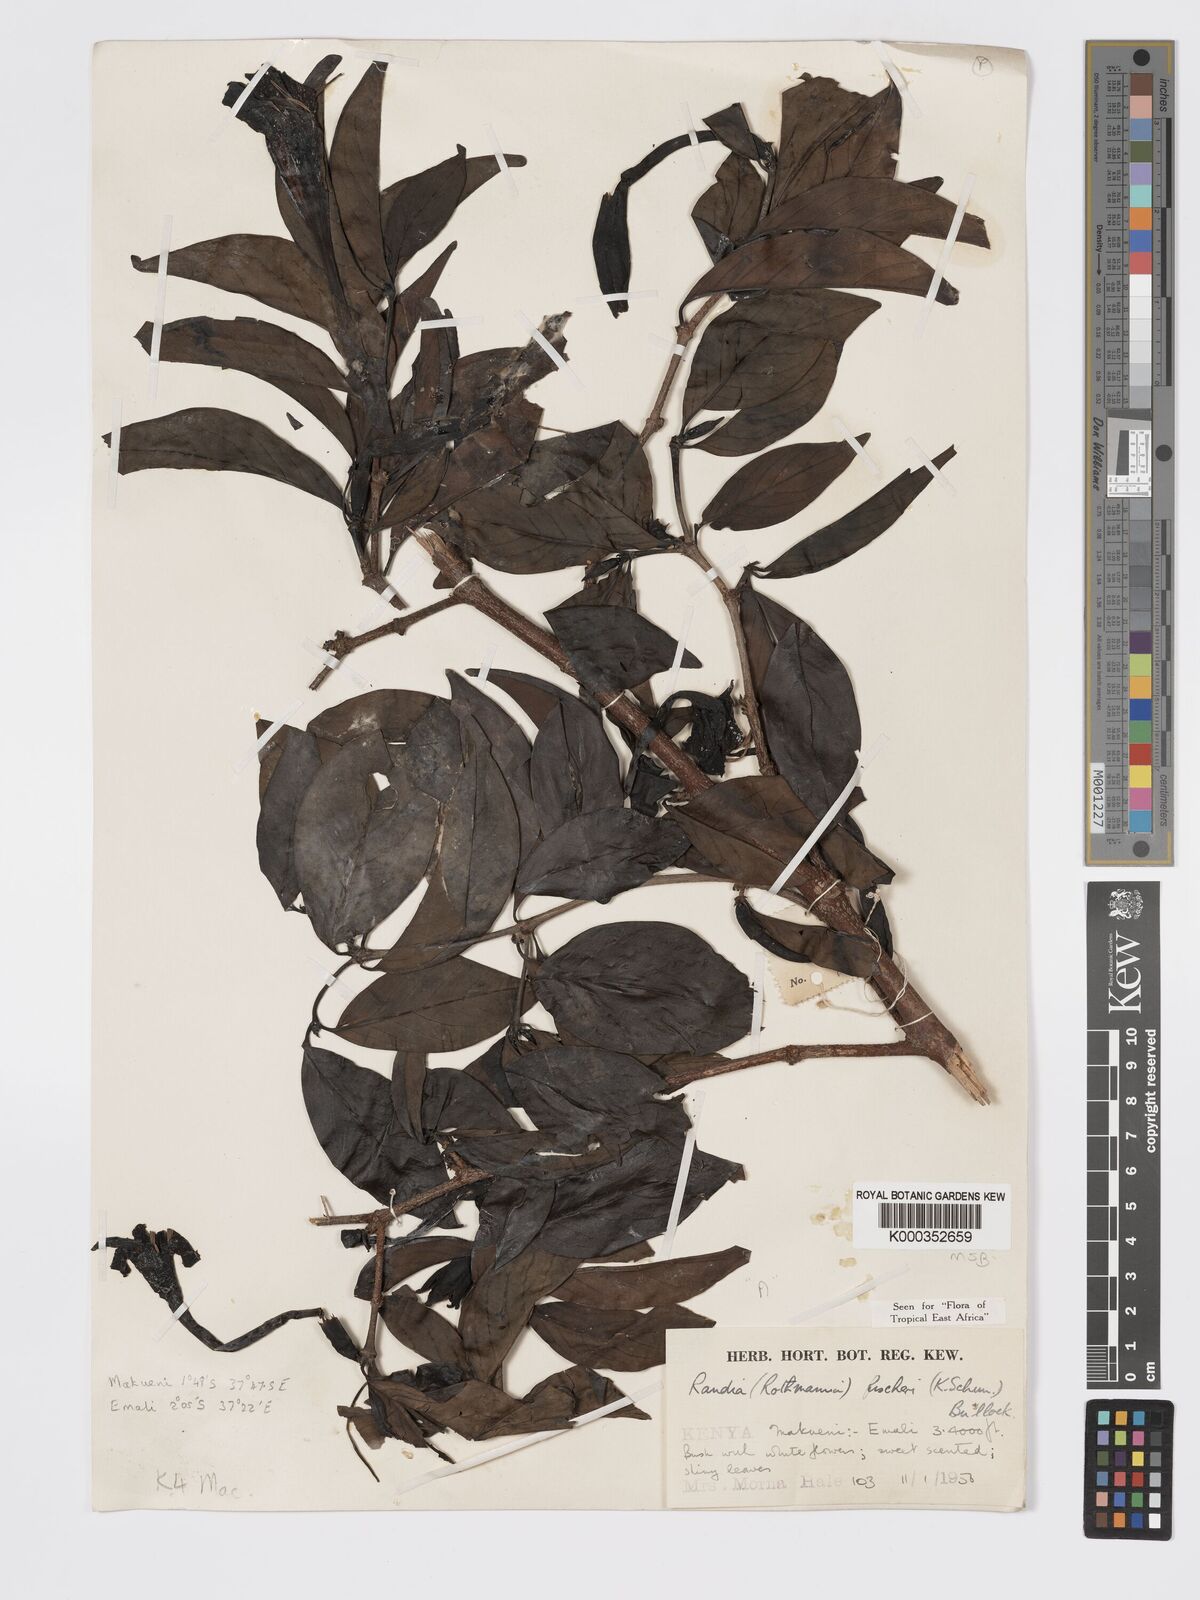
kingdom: Plantae
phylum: Tracheophyta
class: Magnoliopsida
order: Gentianales
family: Rubiaceae
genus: Rothmannia
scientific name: Rothmannia fischeri
